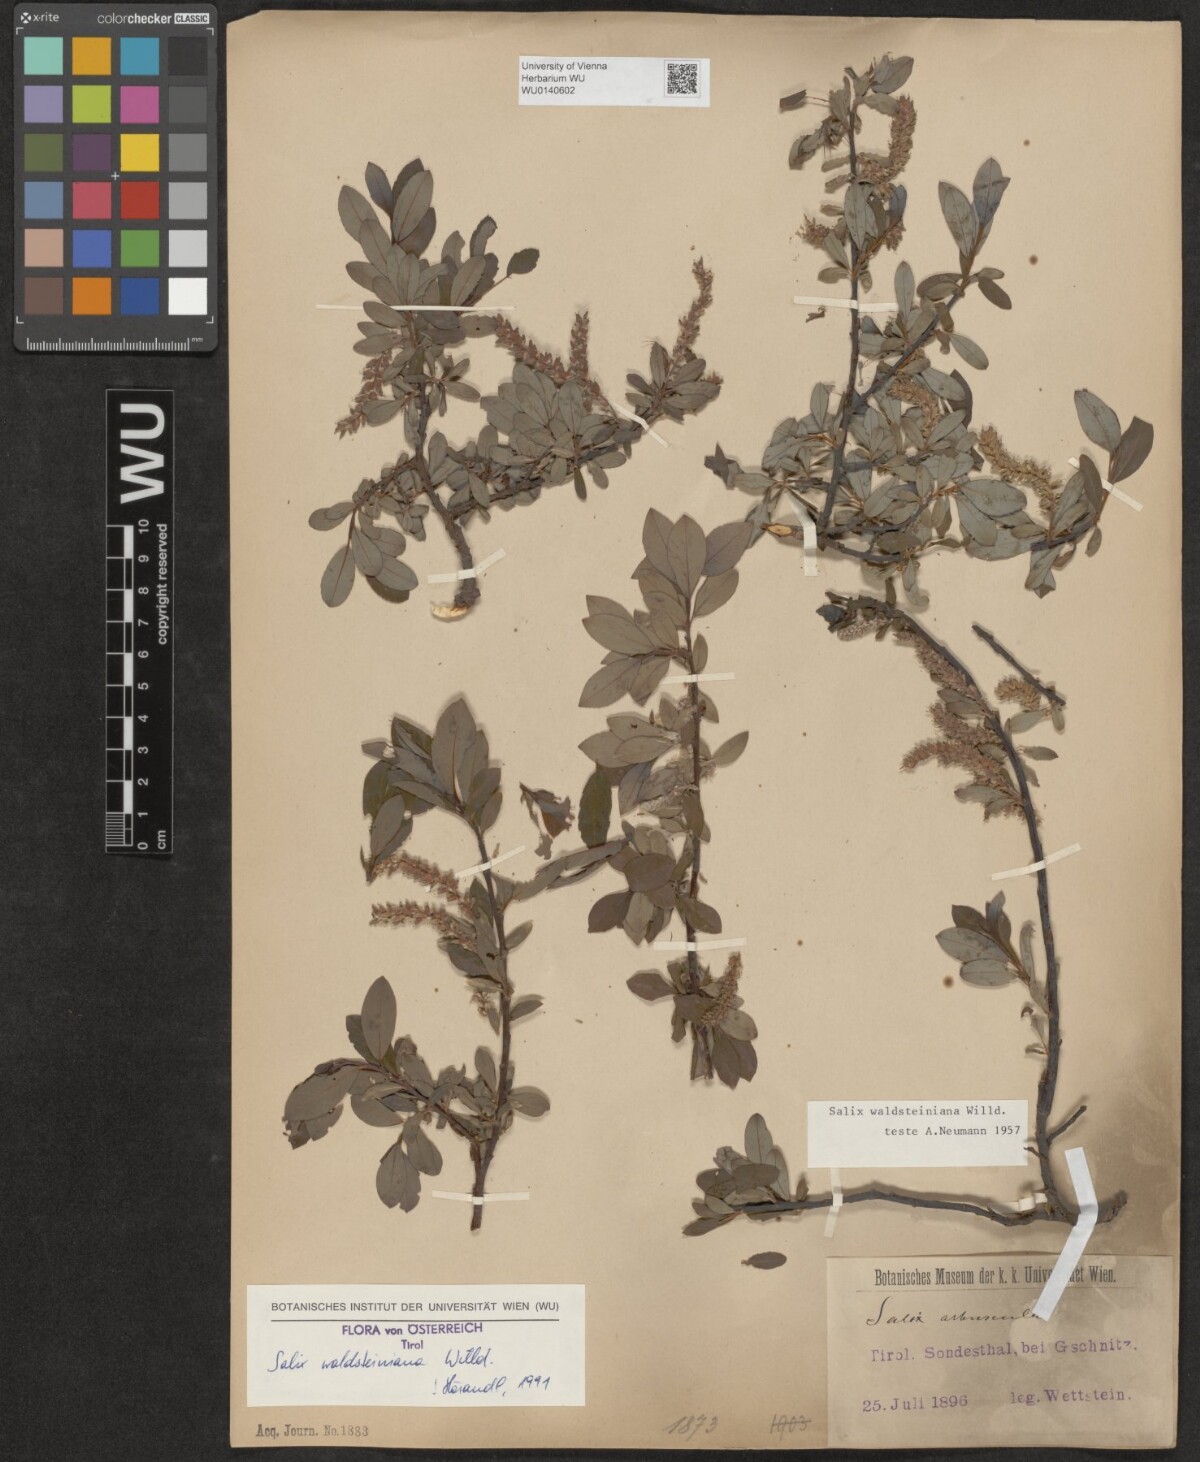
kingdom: Plantae
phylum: Tracheophyta
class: Magnoliopsida
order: Malpighiales
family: Salicaceae
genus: Salix
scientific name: Salix waldsteiniana
